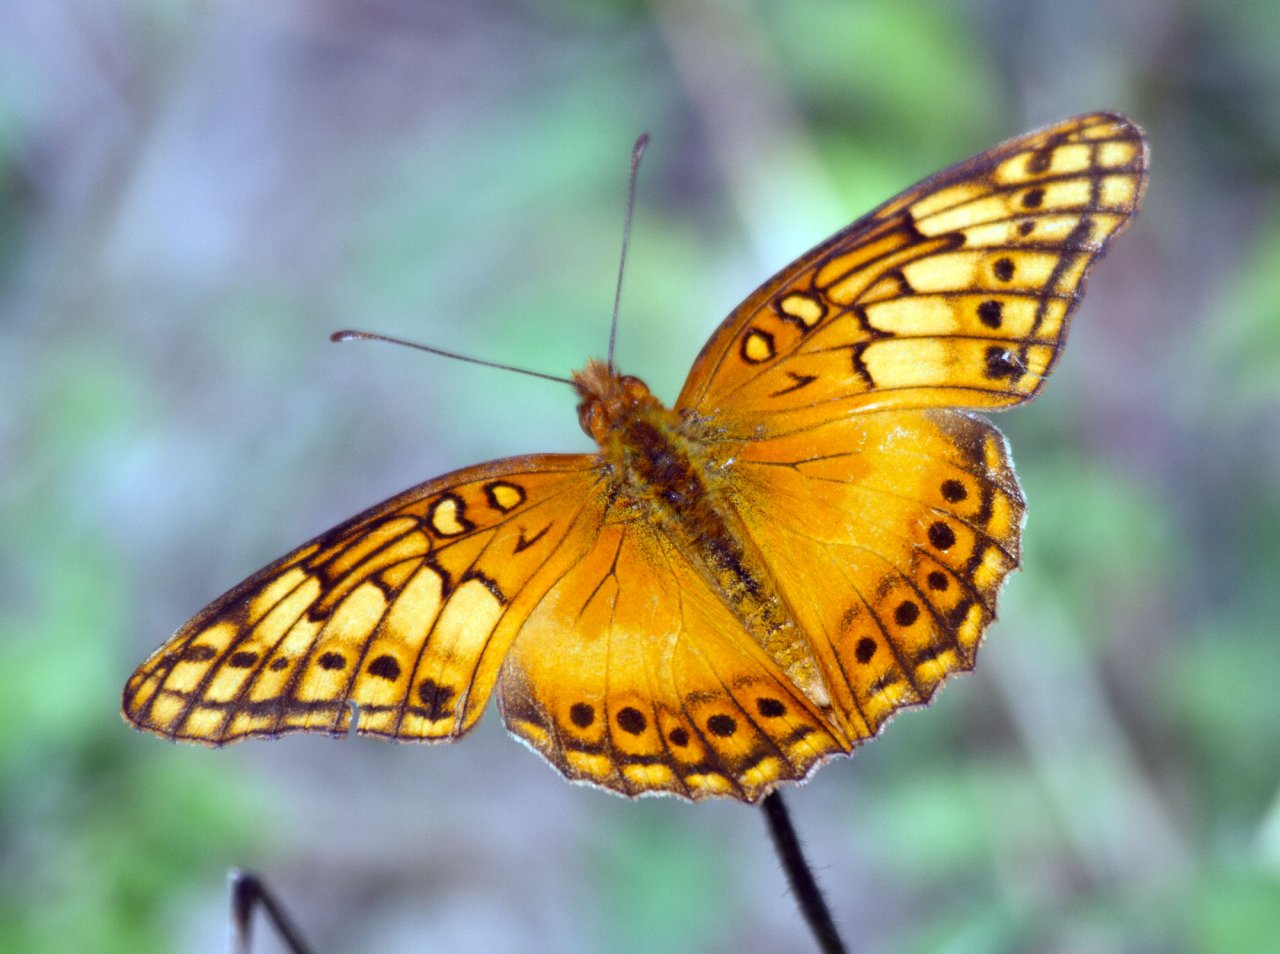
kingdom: Animalia
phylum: Arthropoda
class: Insecta
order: Lepidoptera
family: Nymphalidae
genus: Euptoieta
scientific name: Euptoieta hegesia
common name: Mexican Fritillary
